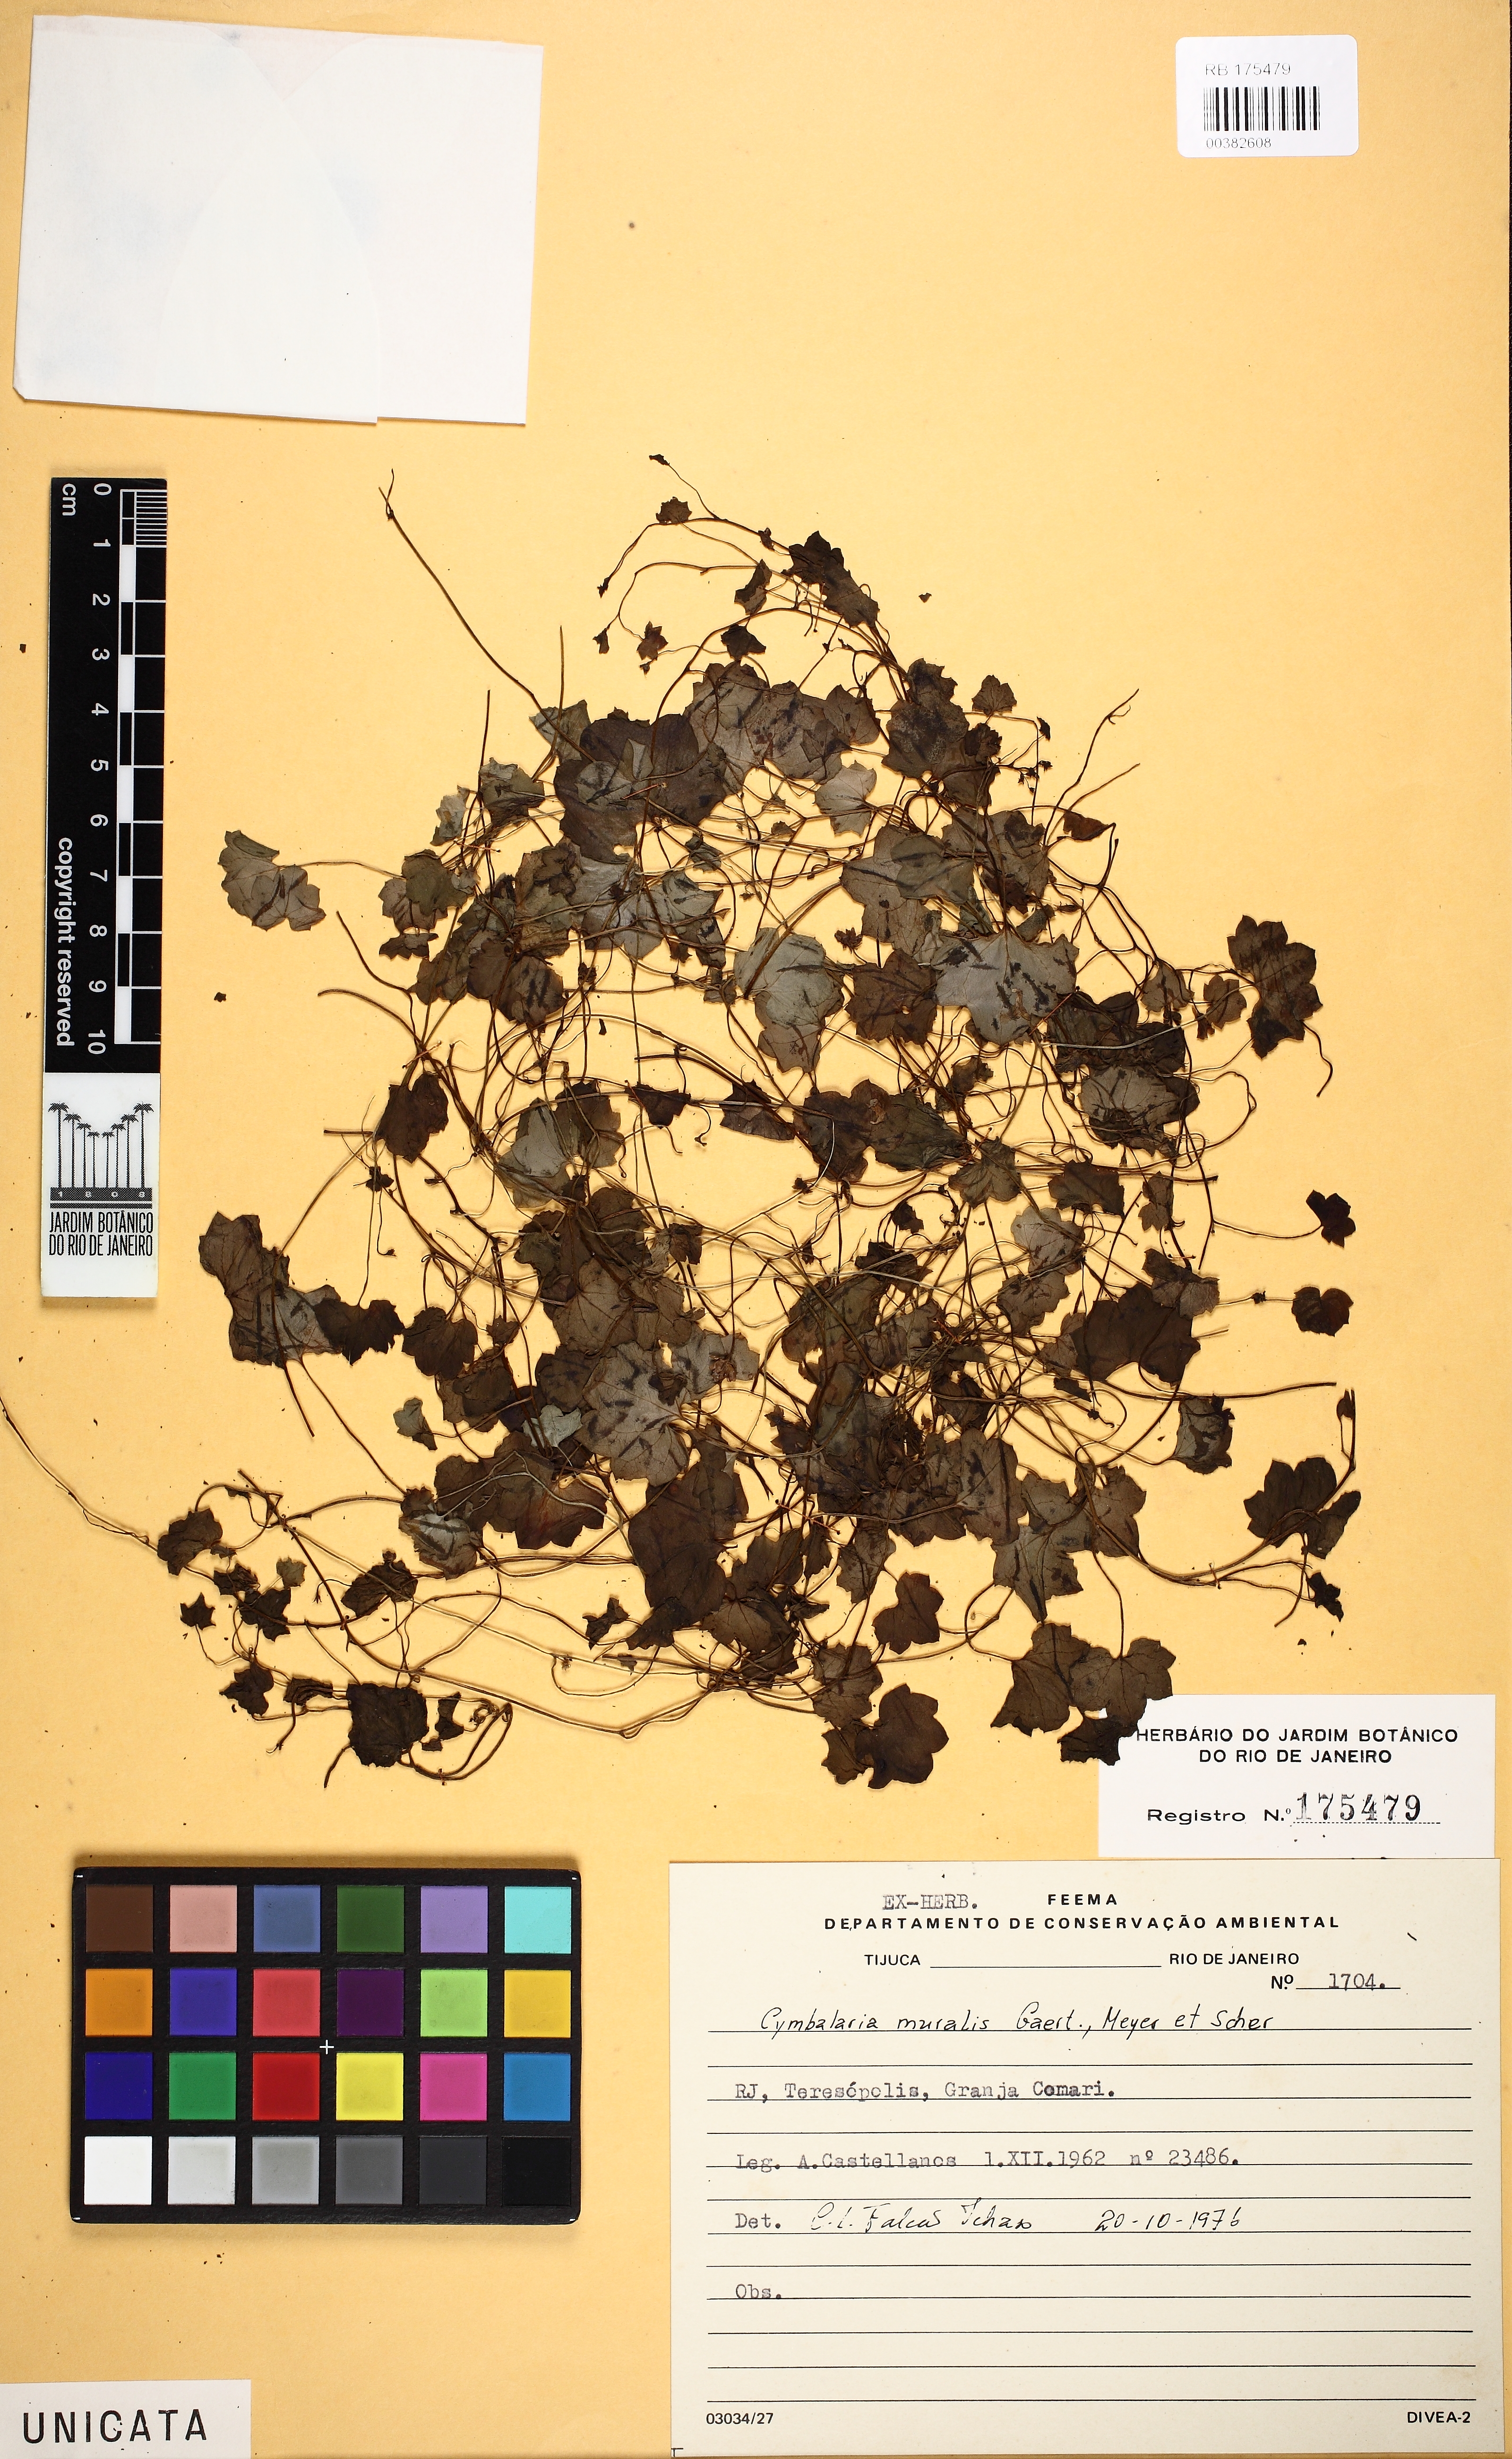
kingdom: Plantae
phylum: Tracheophyta
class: Magnoliopsida
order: Lamiales
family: Plantaginaceae
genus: Cymbalaria
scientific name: Cymbalaria muralis
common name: Ivy-leaved toadflax
